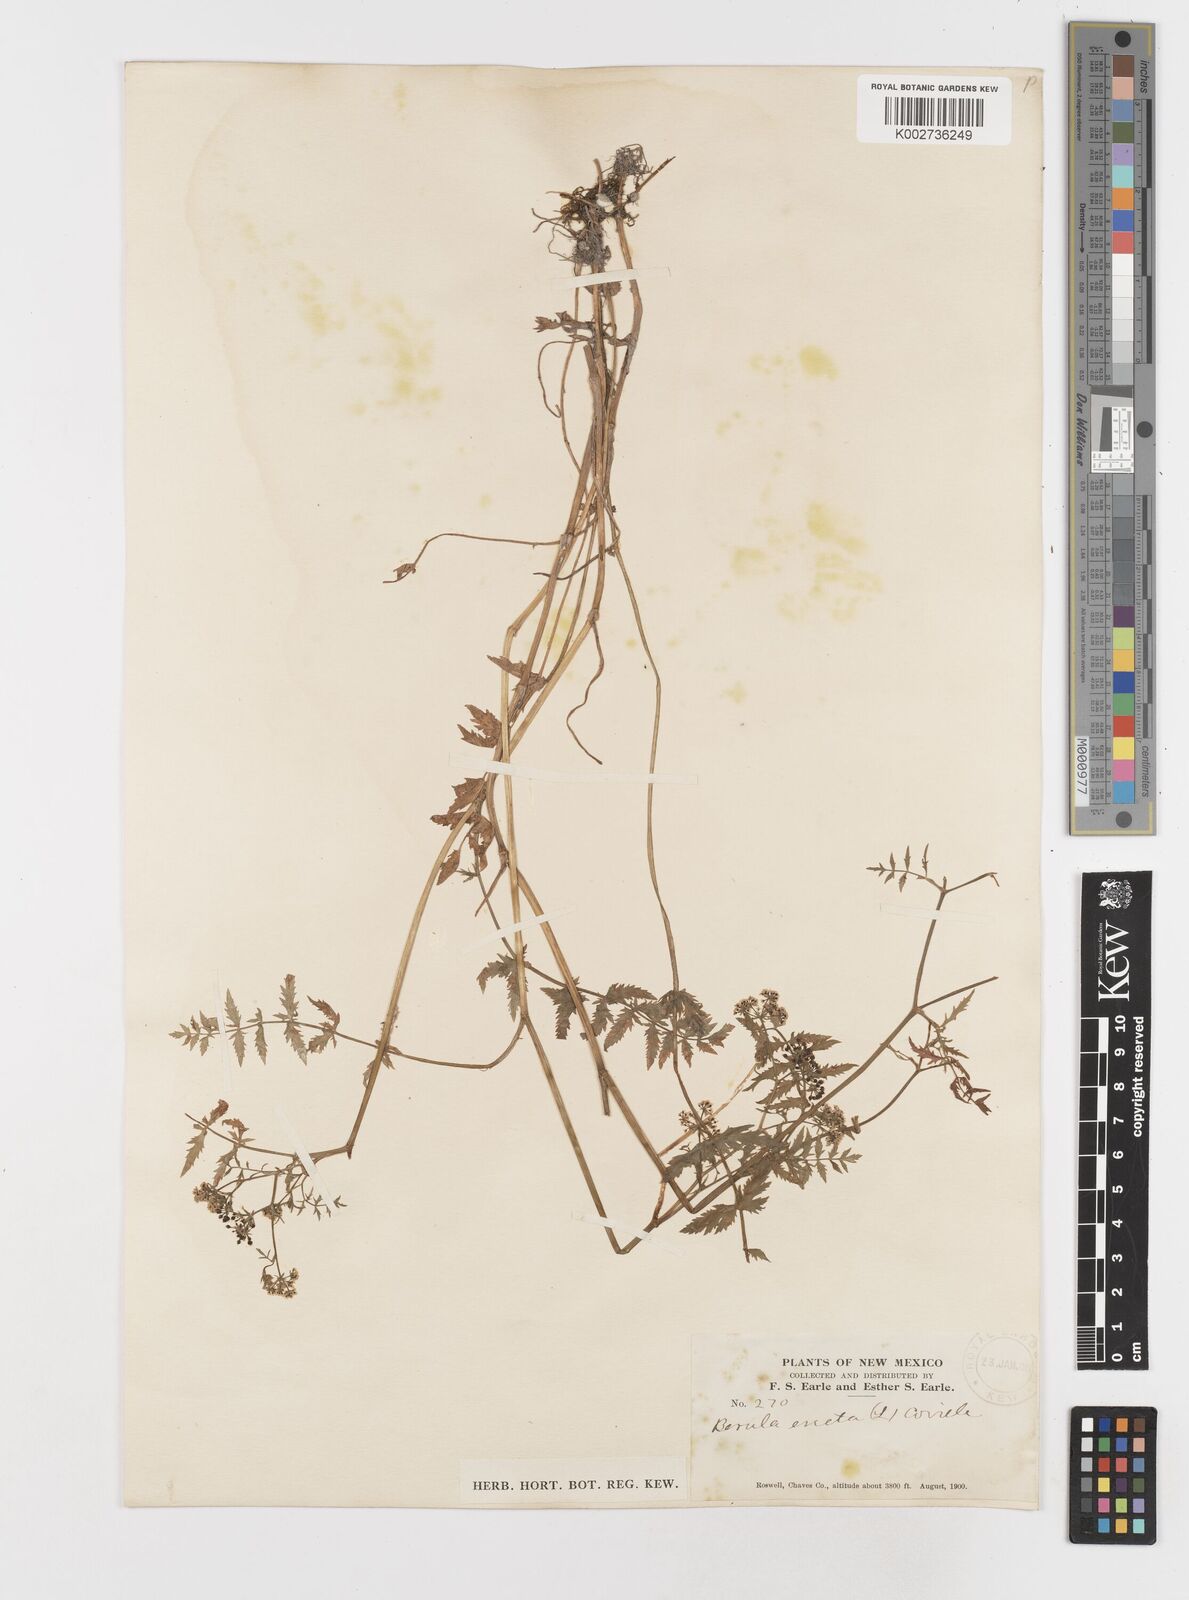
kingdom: Plantae
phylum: Tracheophyta
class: Magnoliopsida
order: Apiales
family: Apiaceae
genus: Berula
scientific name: Berula erecta
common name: Lesser water-parsnip
